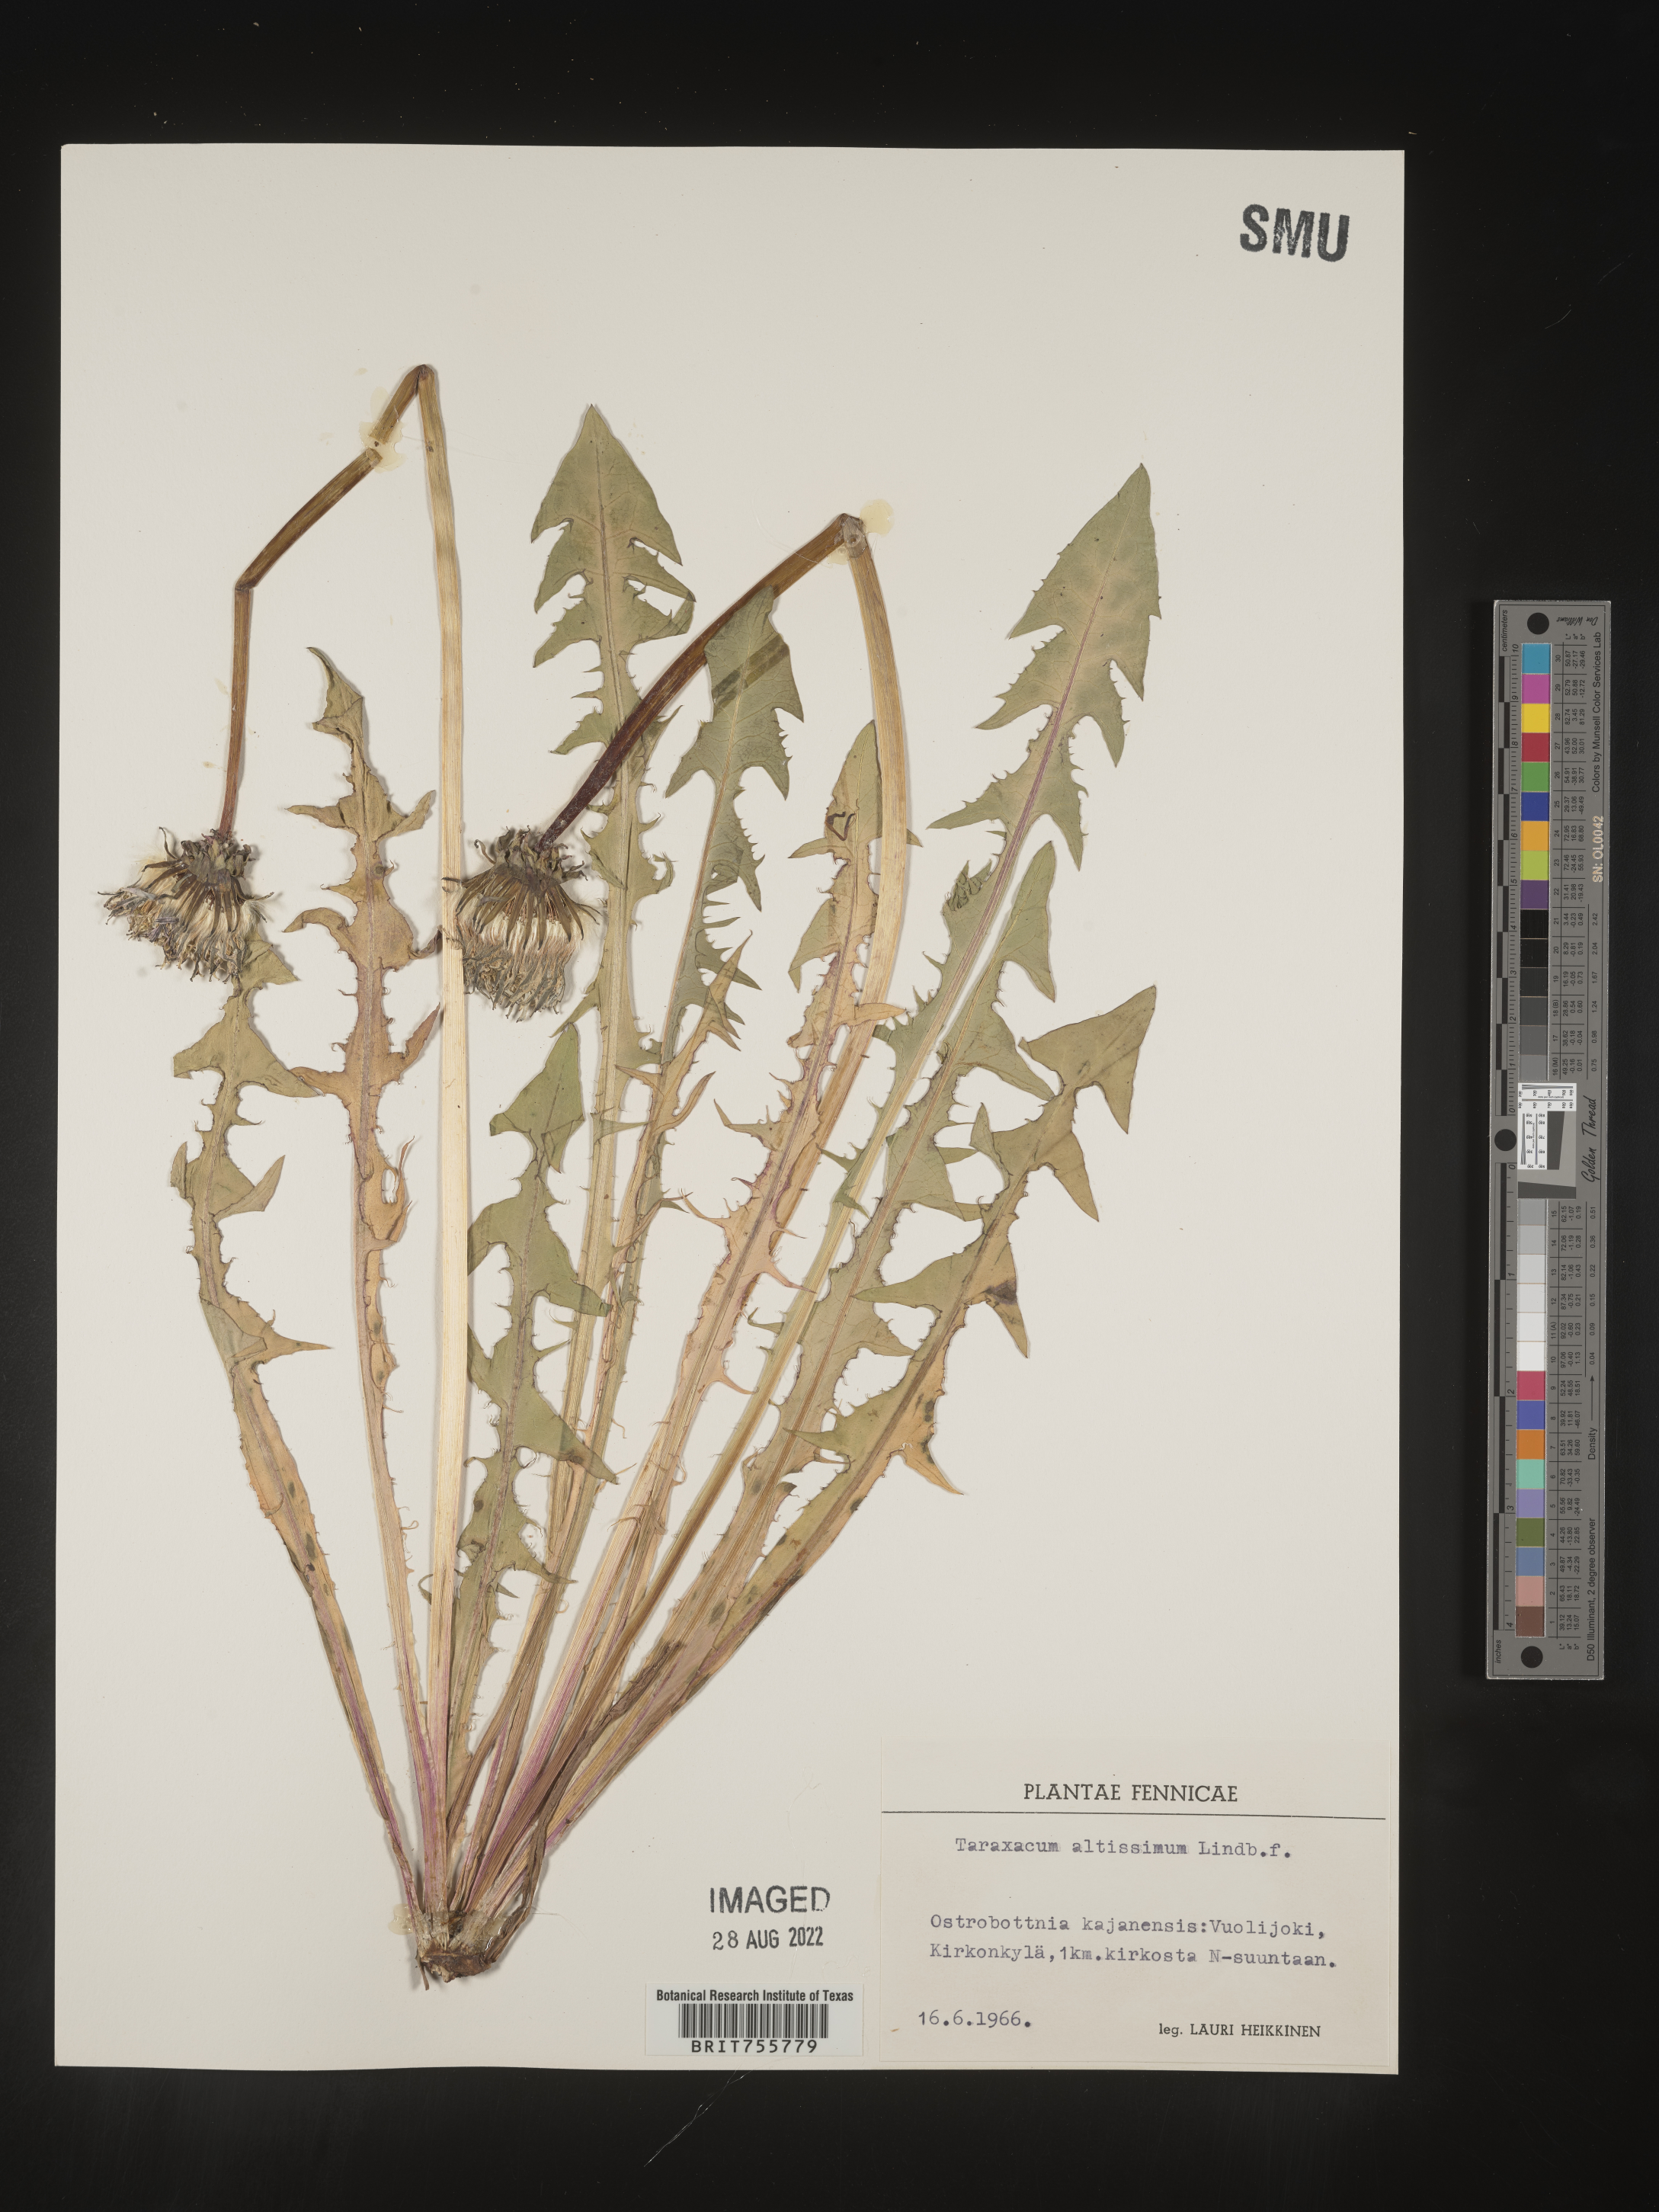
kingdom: Plantae
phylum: Tracheophyta
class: Magnoliopsida
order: Asterales
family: Asteraceae
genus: Taraxacum
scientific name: Taraxacum
